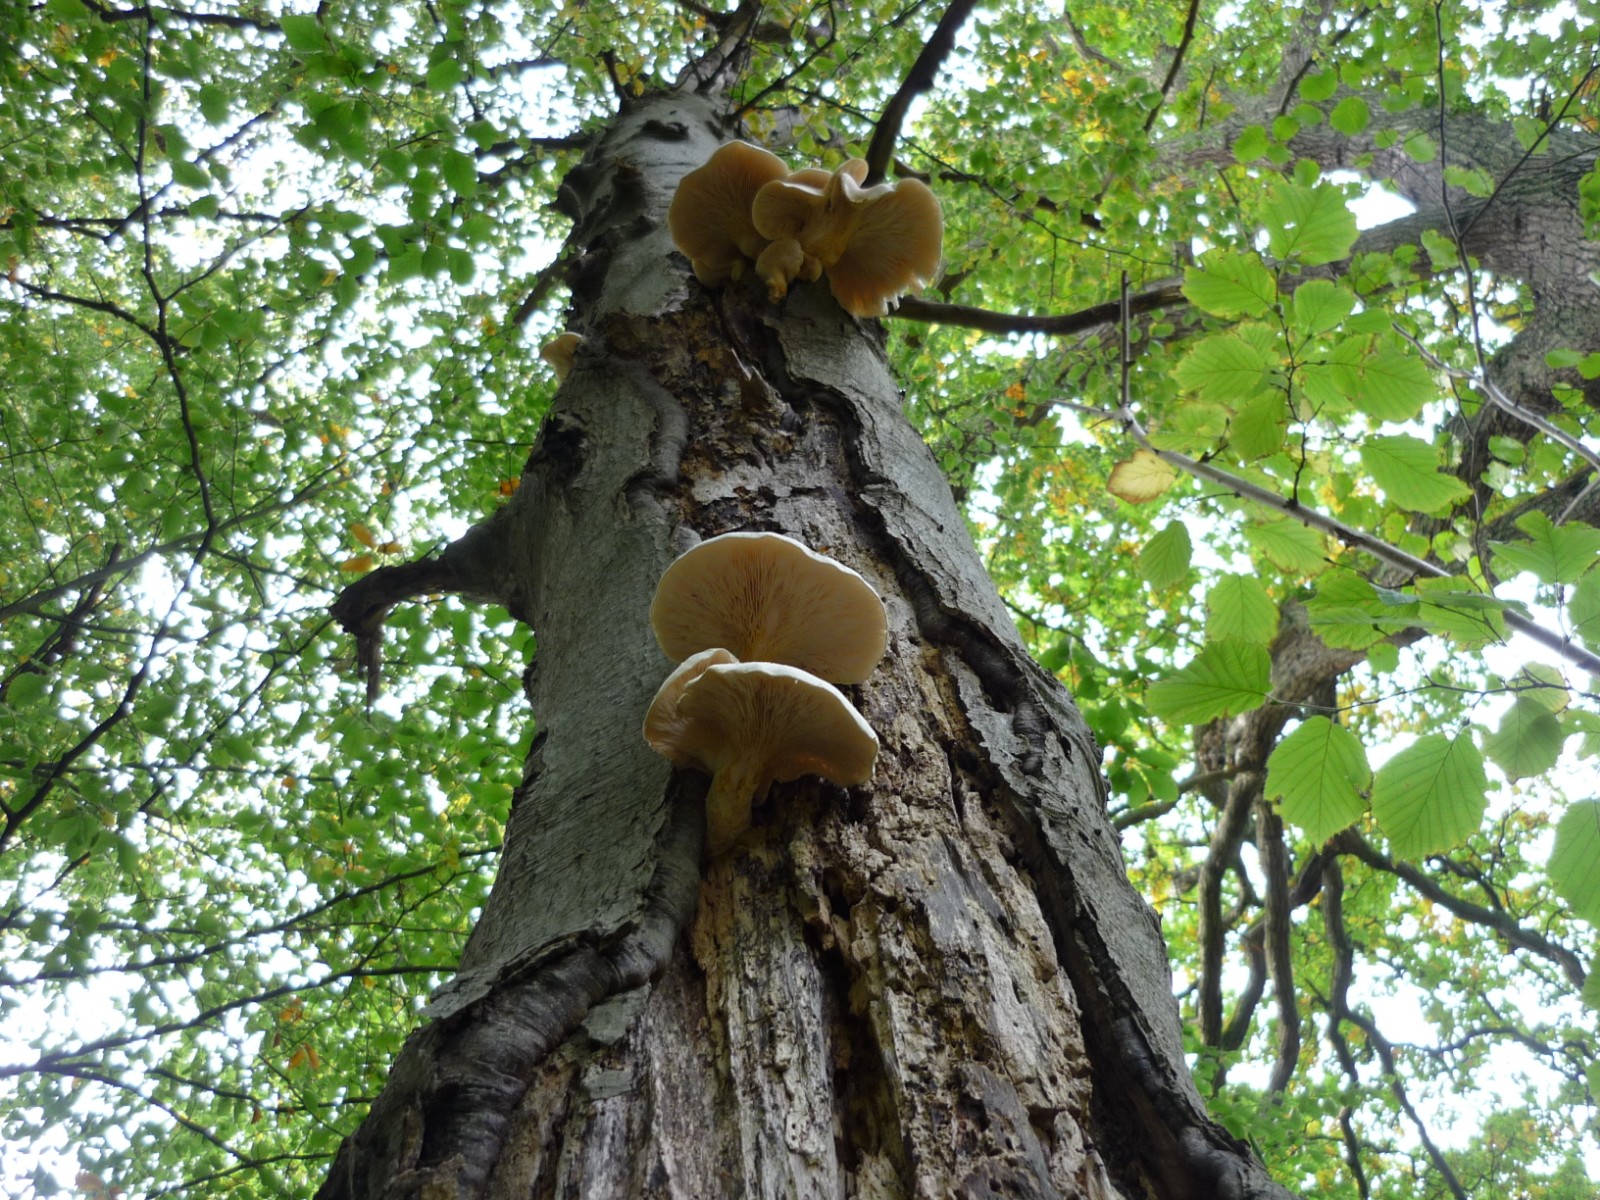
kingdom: Fungi
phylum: Basidiomycota
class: Agaricomycetes
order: Agaricales
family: Pleurotaceae
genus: Pleurotus
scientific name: Pleurotus dryinus
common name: korkagtig østershat
